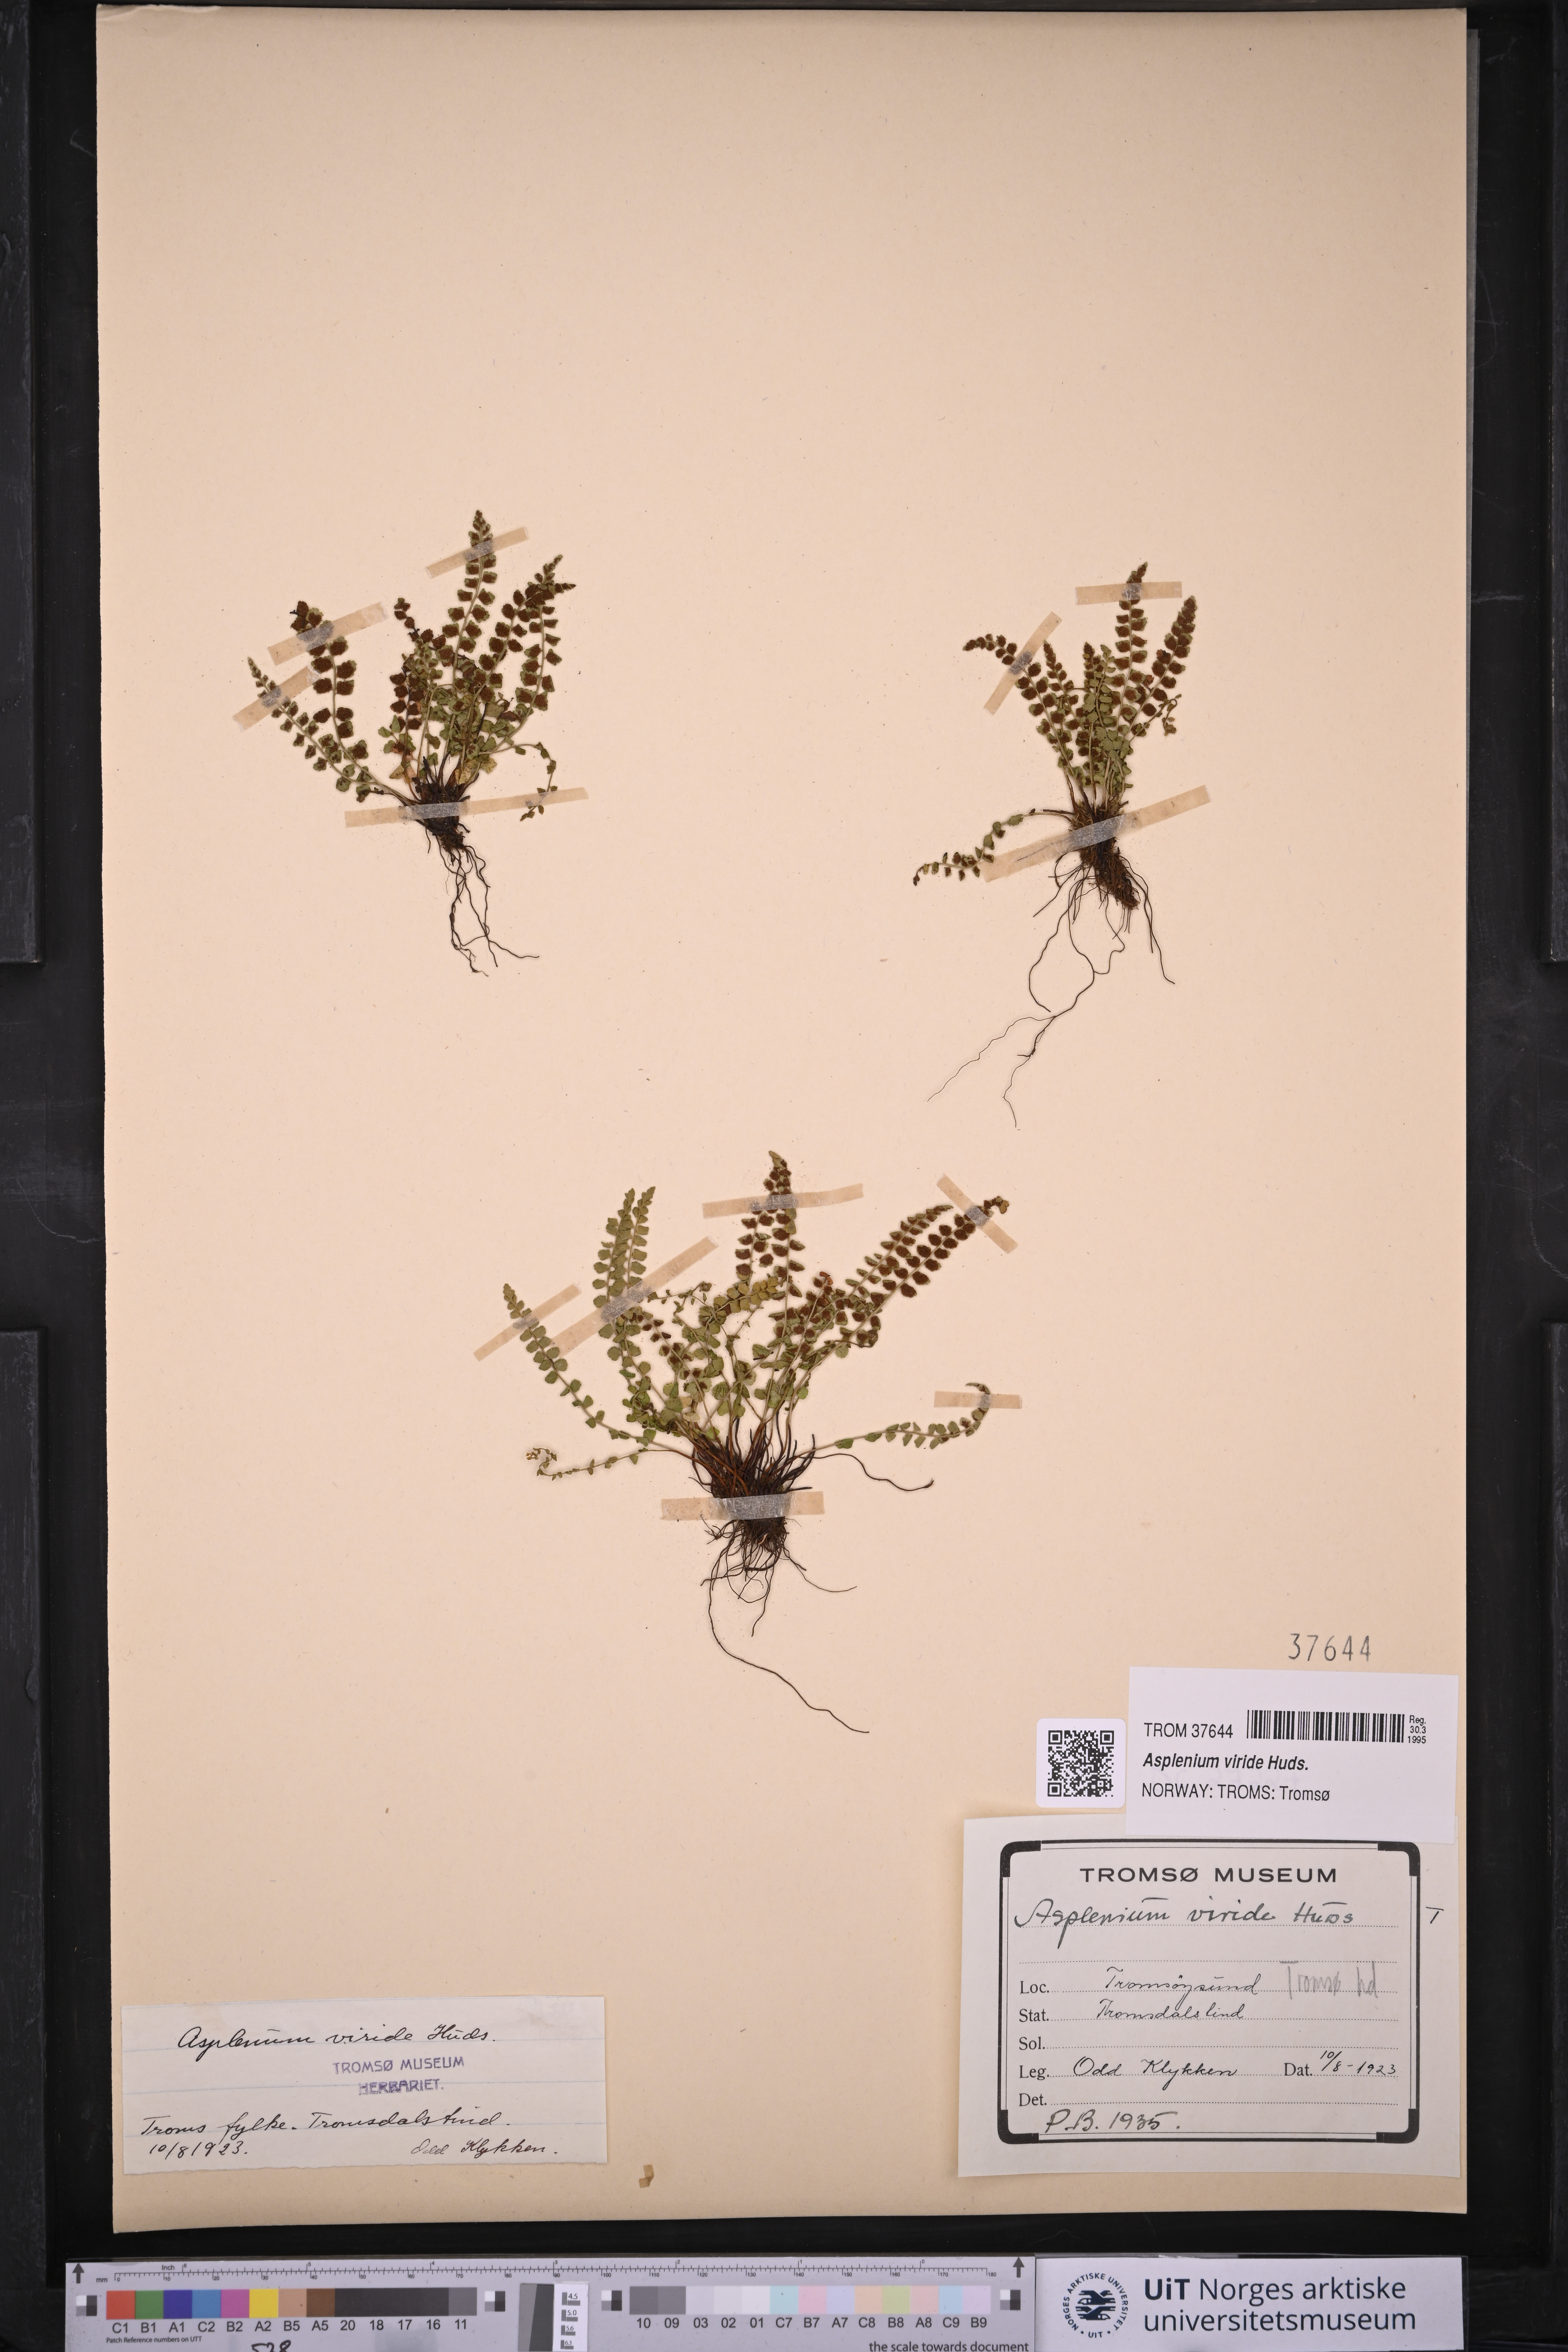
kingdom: Plantae
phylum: Tracheophyta
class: Polypodiopsida
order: Polypodiales
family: Aspleniaceae
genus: Asplenium
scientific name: Asplenium viride
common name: Green spleenwort
